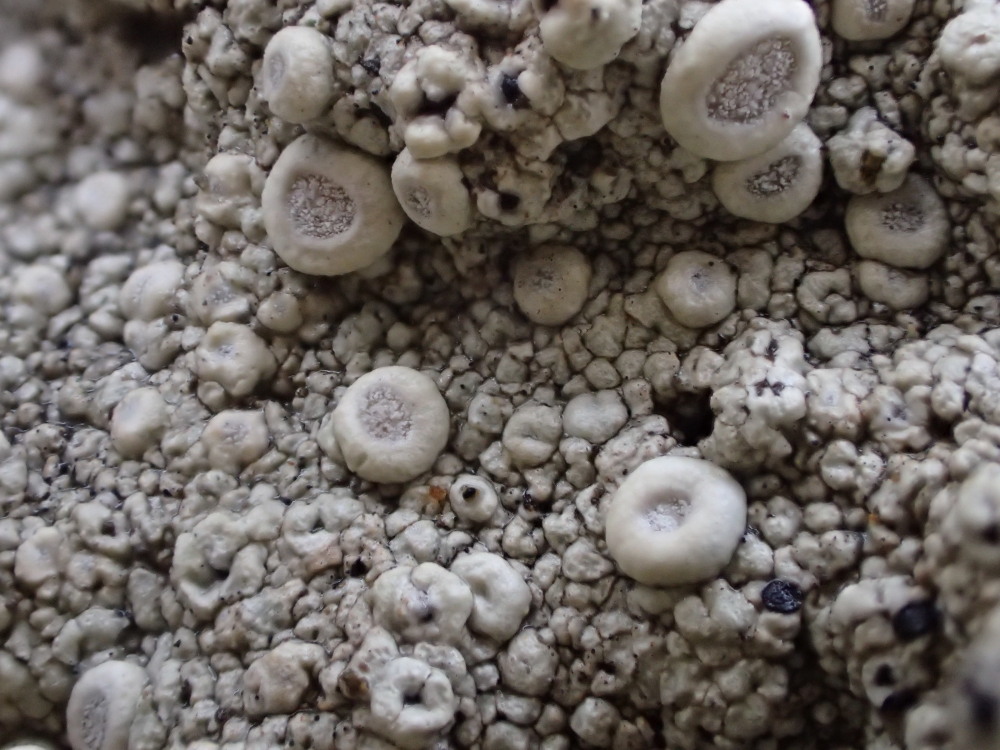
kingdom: Fungi
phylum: Ascomycota
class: Lecanoromycetes
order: Pertusariales
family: Ochrolechiaceae
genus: Ochrolechia
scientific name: Ochrolechia parella
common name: almindelig blegskivelav
